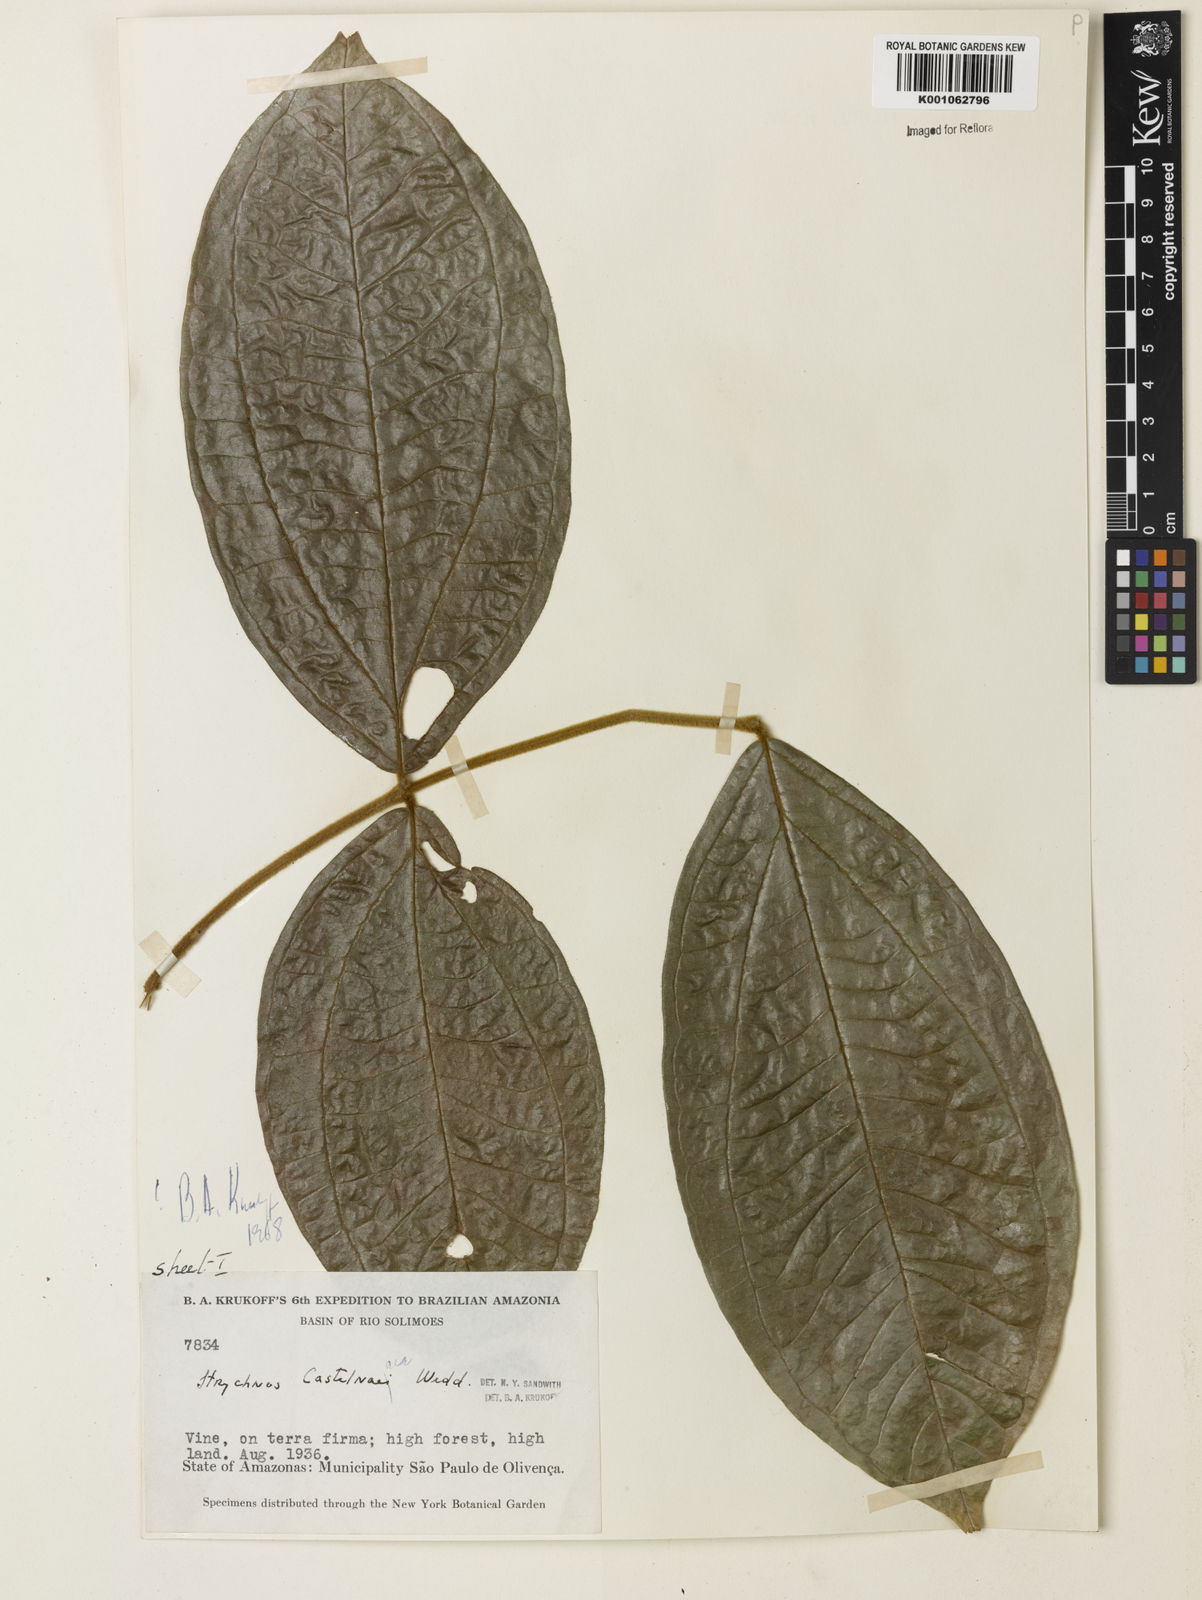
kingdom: Plantae
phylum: Tracheophyta
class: Magnoliopsida
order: Gentianales
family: Loganiaceae
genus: Strychnos
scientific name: Strychnos
